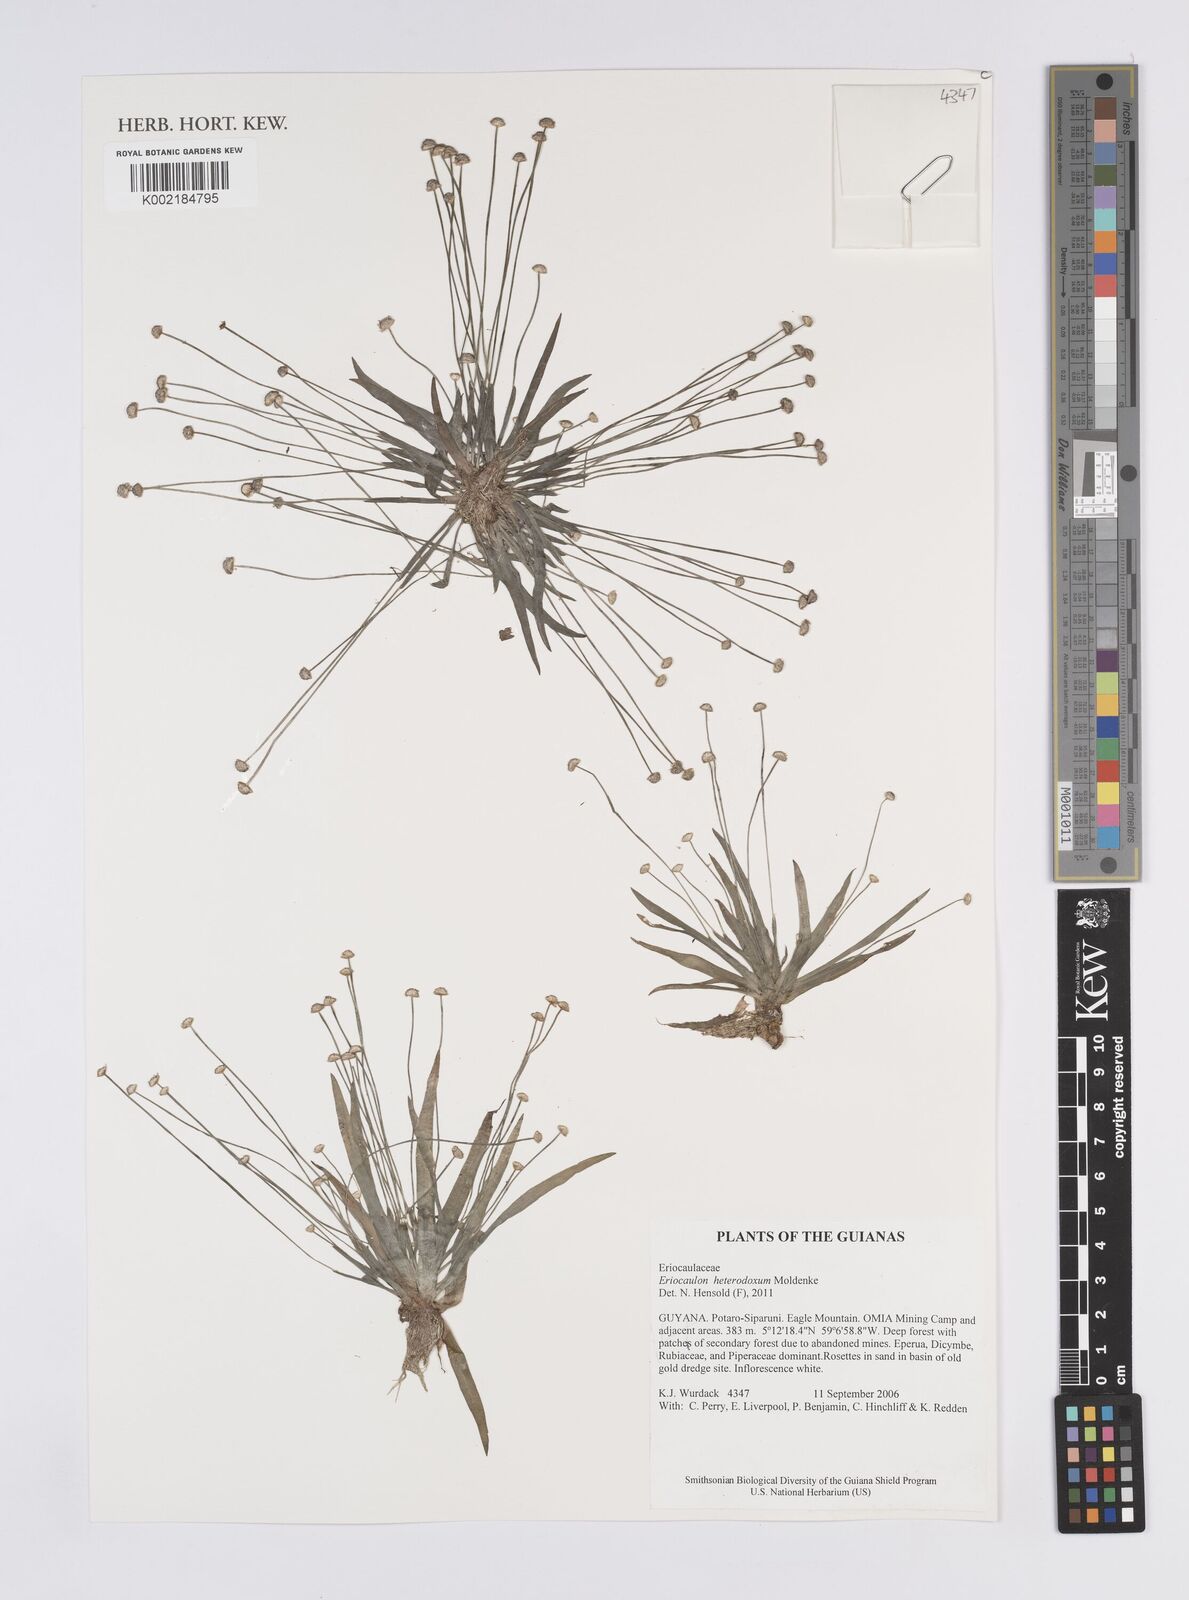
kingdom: Plantae
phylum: Tracheophyta
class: Liliopsida
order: Poales
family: Eriocaulaceae
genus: Eriocaulon
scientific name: Eriocaulon heterodoxum
